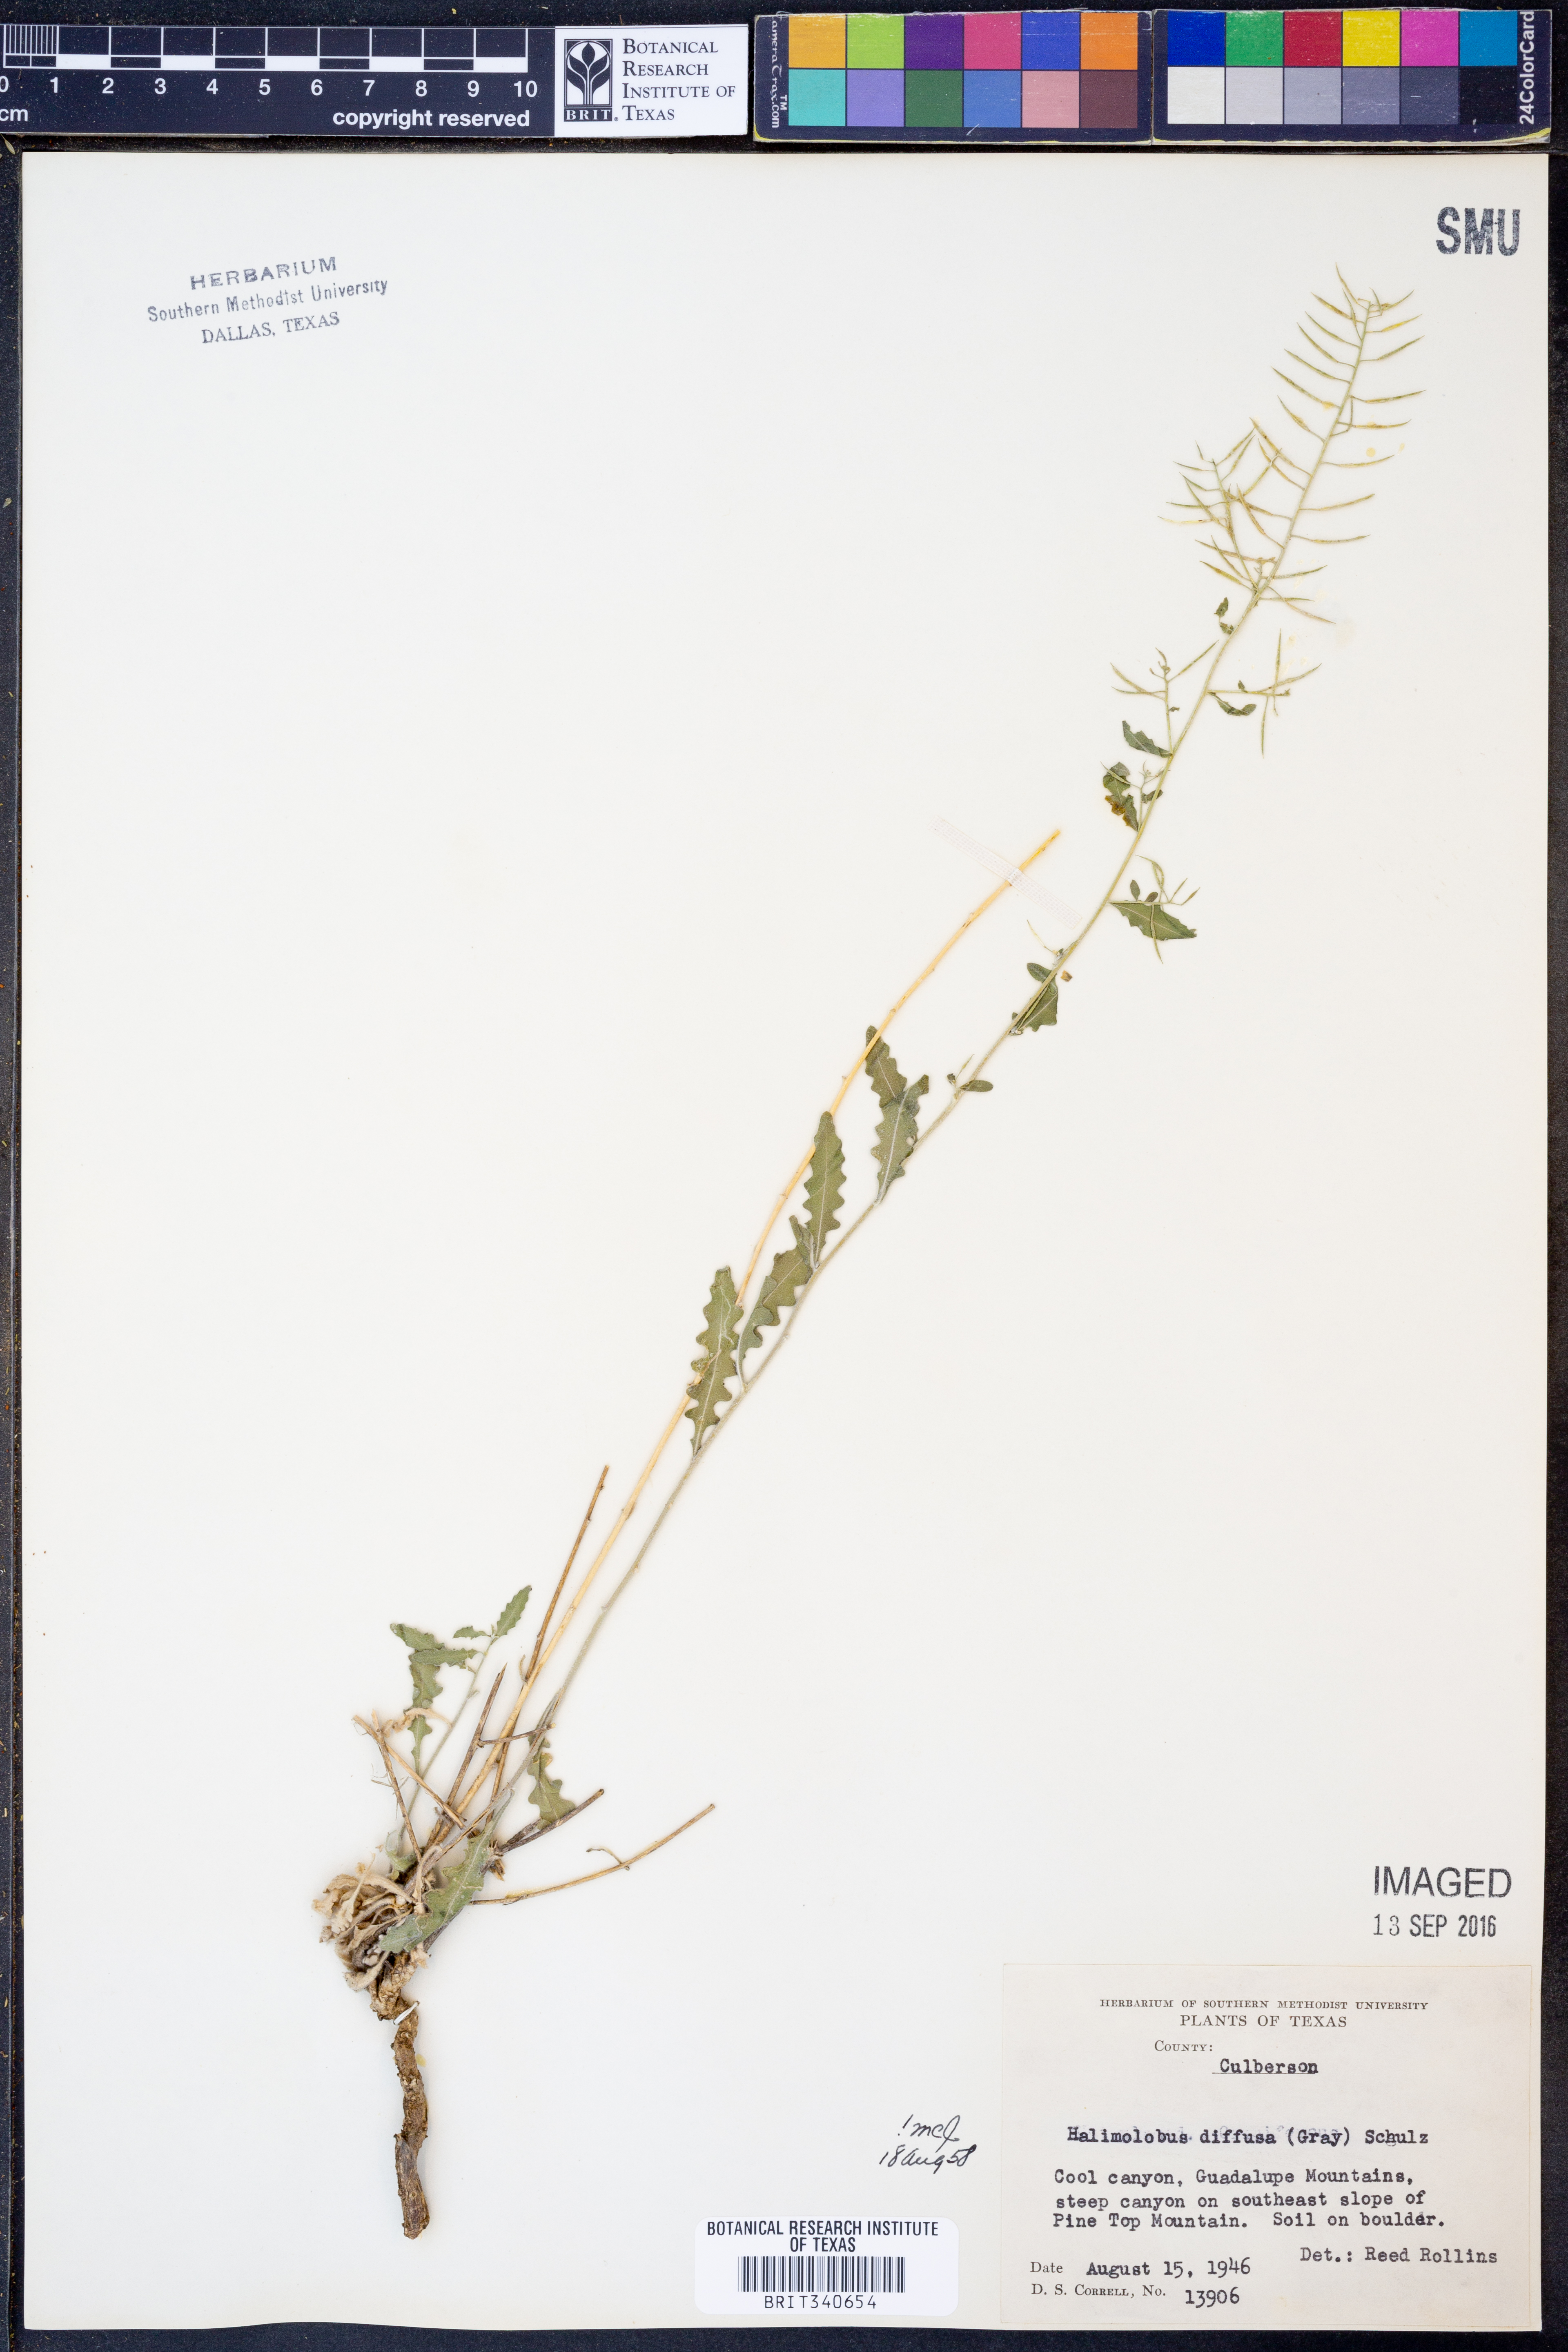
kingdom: Plantae
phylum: Tracheophyta
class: Magnoliopsida
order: Brassicales
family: Brassicaceae
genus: Halimolobos
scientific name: Halimolobos diffusus
